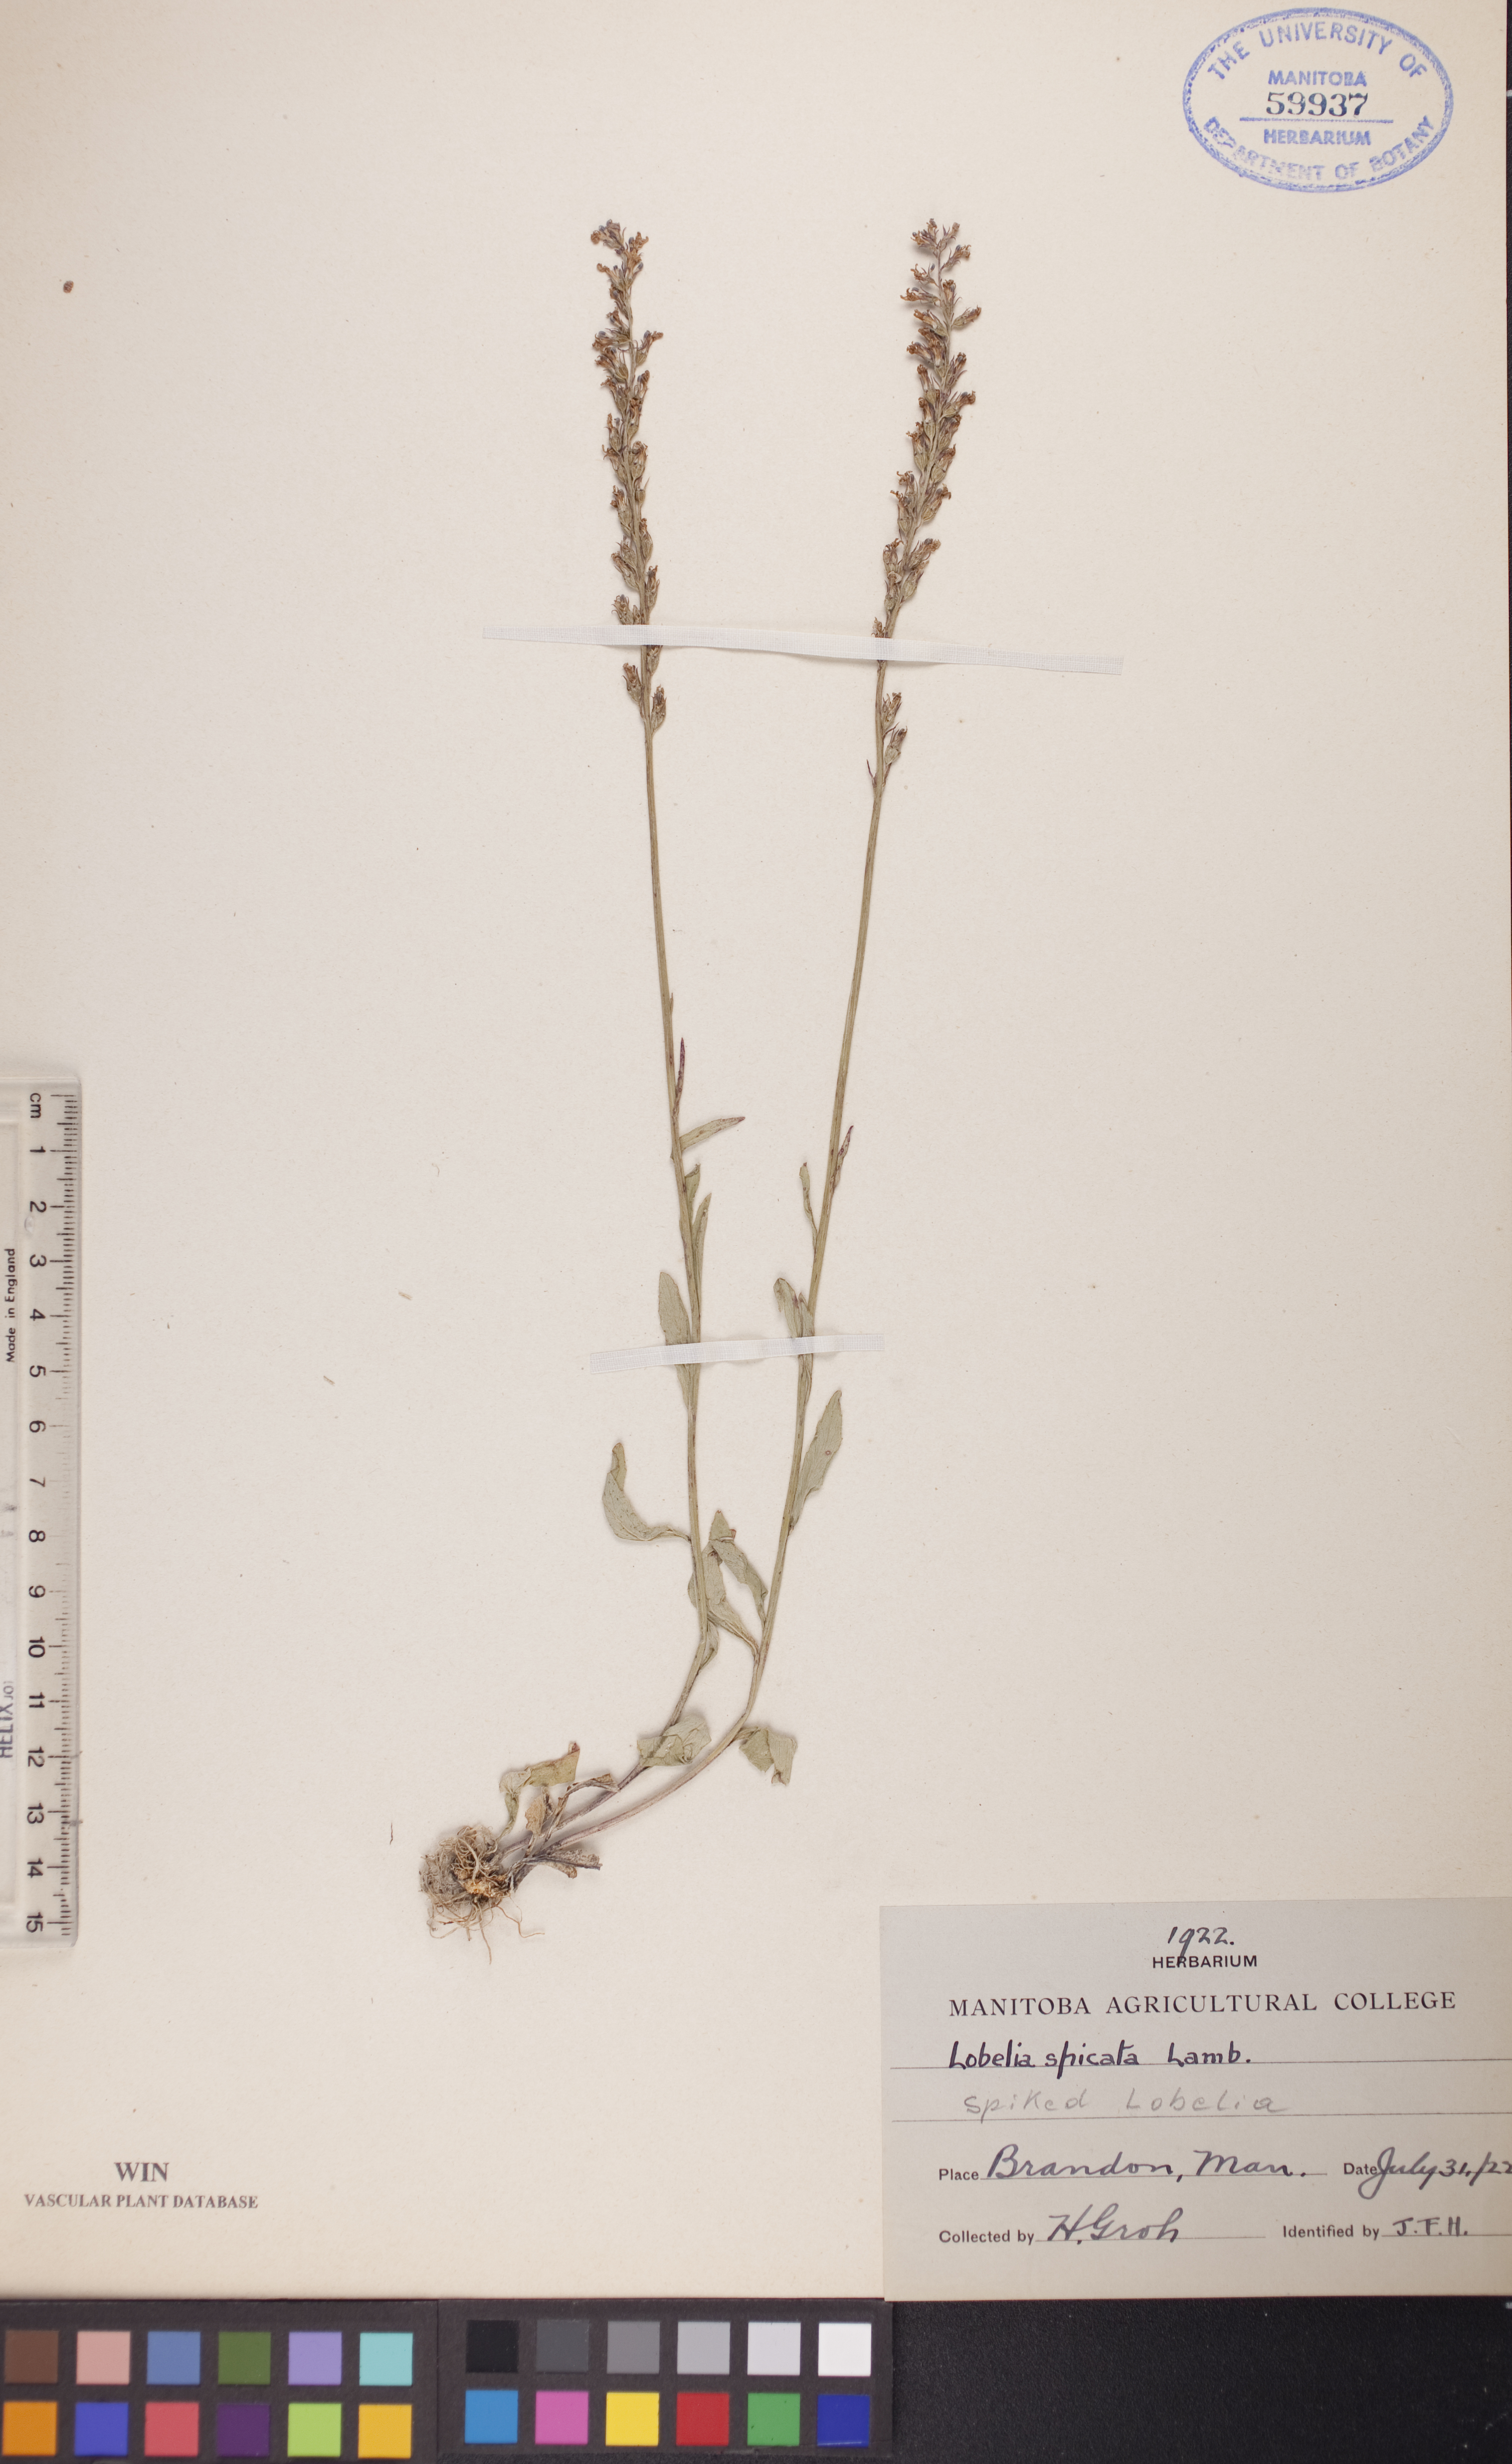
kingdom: Plantae
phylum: Tracheophyta
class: Magnoliopsida
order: Asterales
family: Campanulaceae
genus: Lobelia
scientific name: Lobelia spicata
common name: Pale-spike lobelia
